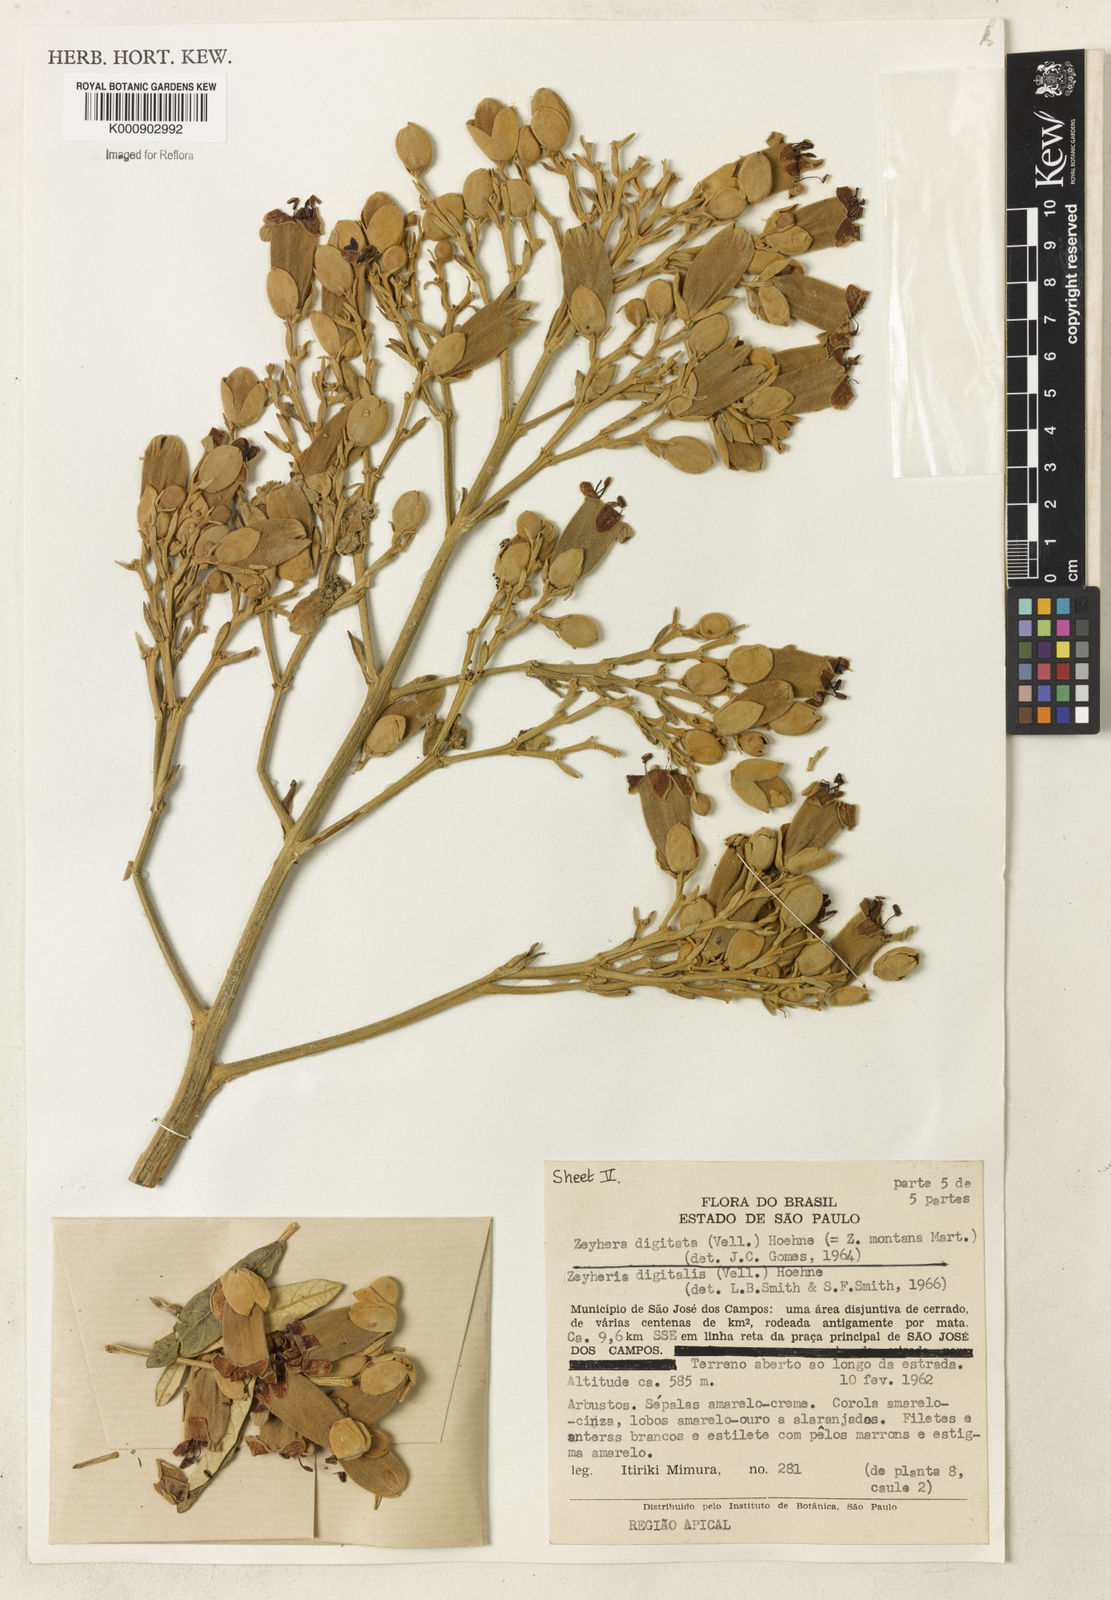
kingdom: Plantae
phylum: Tracheophyta
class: Magnoliopsida
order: Lamiales
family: Bignoniaceae
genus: Zeyheria
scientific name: Zeyheria
